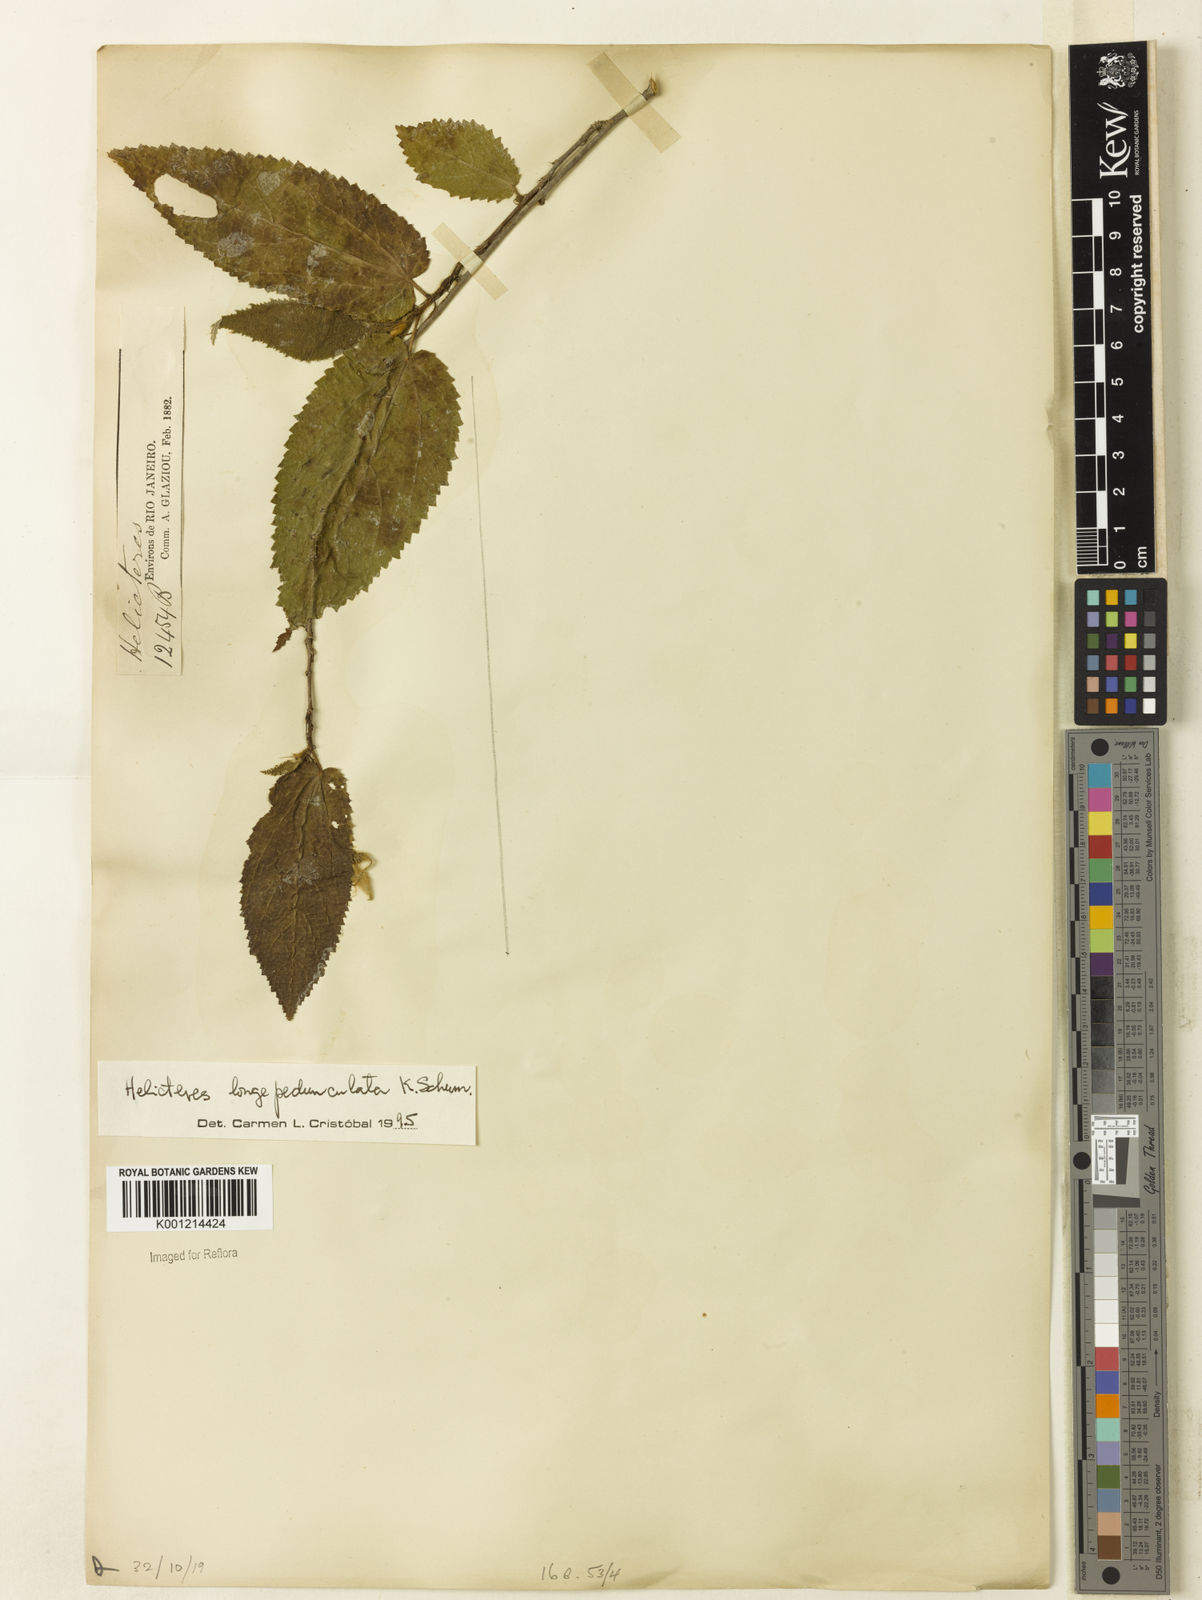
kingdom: Plantae
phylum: Tracheophyta
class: Magnoliopsida
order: Malvales
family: Malvaceae
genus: Helicteres
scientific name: Helicteres longepedunculata
